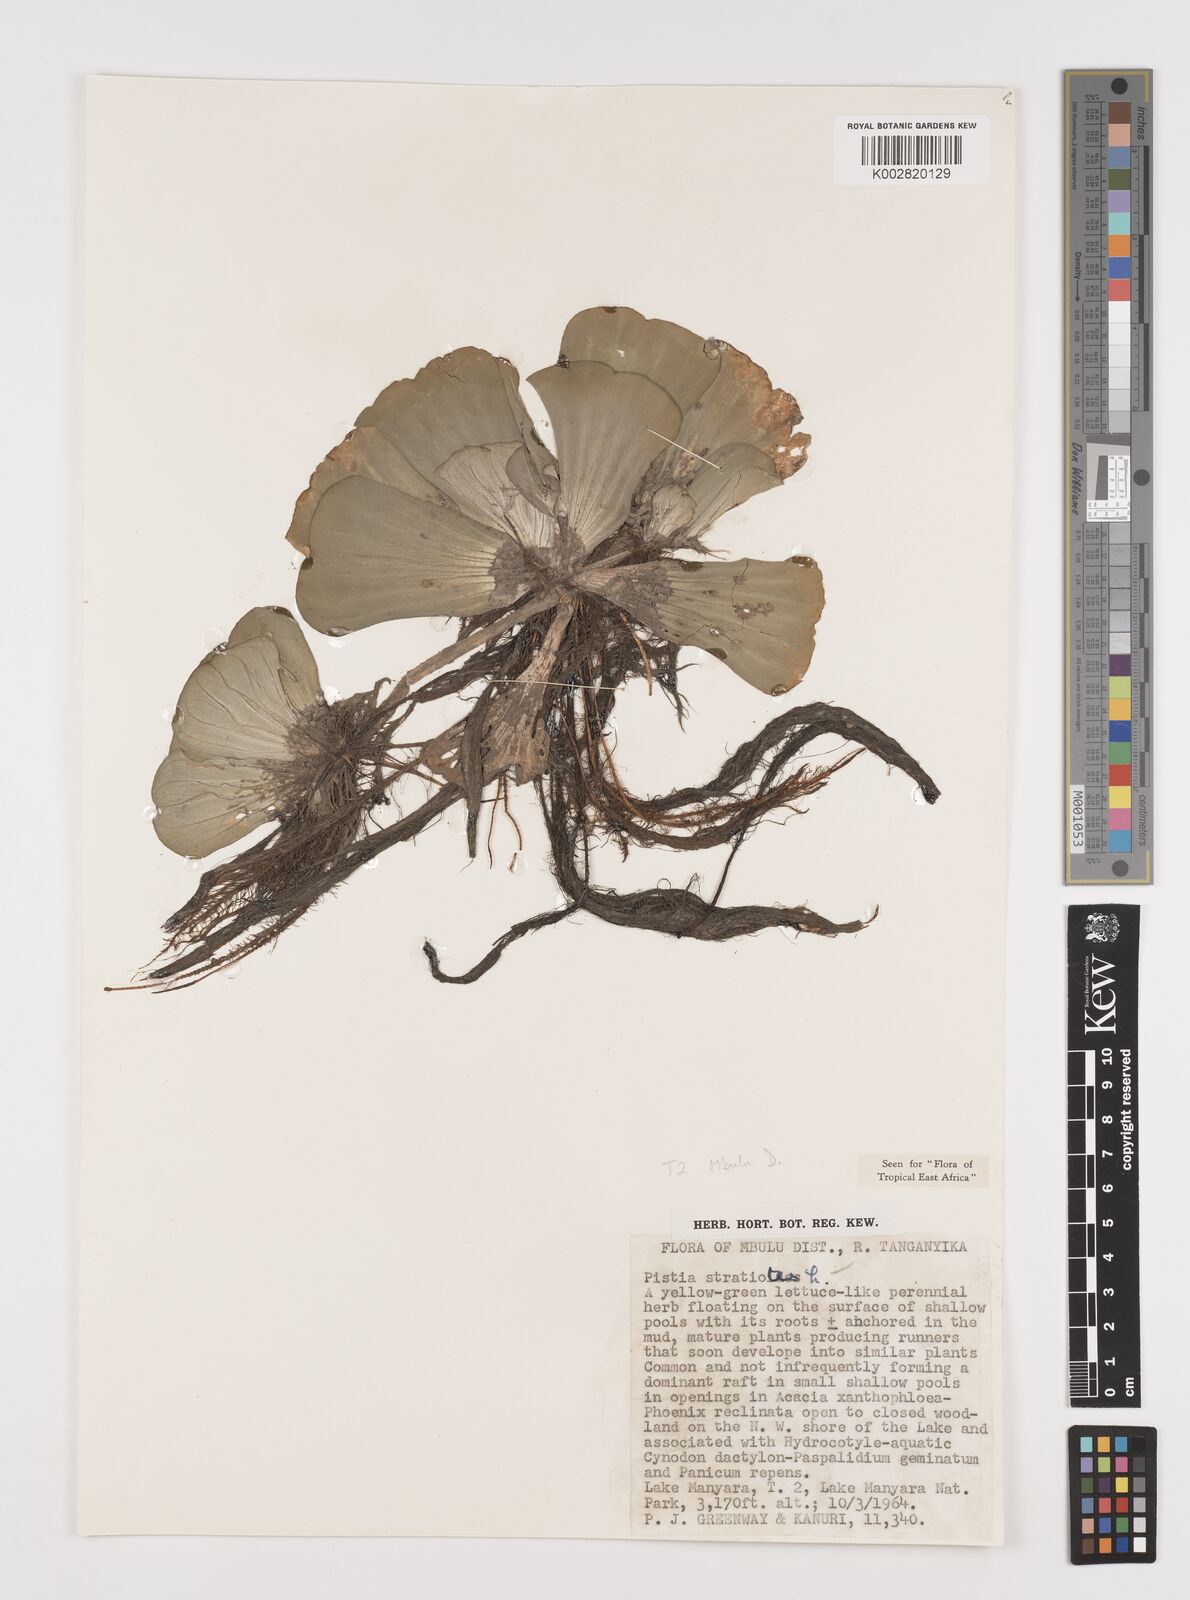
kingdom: Plantae
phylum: Tracheophyta
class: Liliopsida
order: Alismatales
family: Araceae
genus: Pistia
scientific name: Pistia stratiotes
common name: Water lettuce
